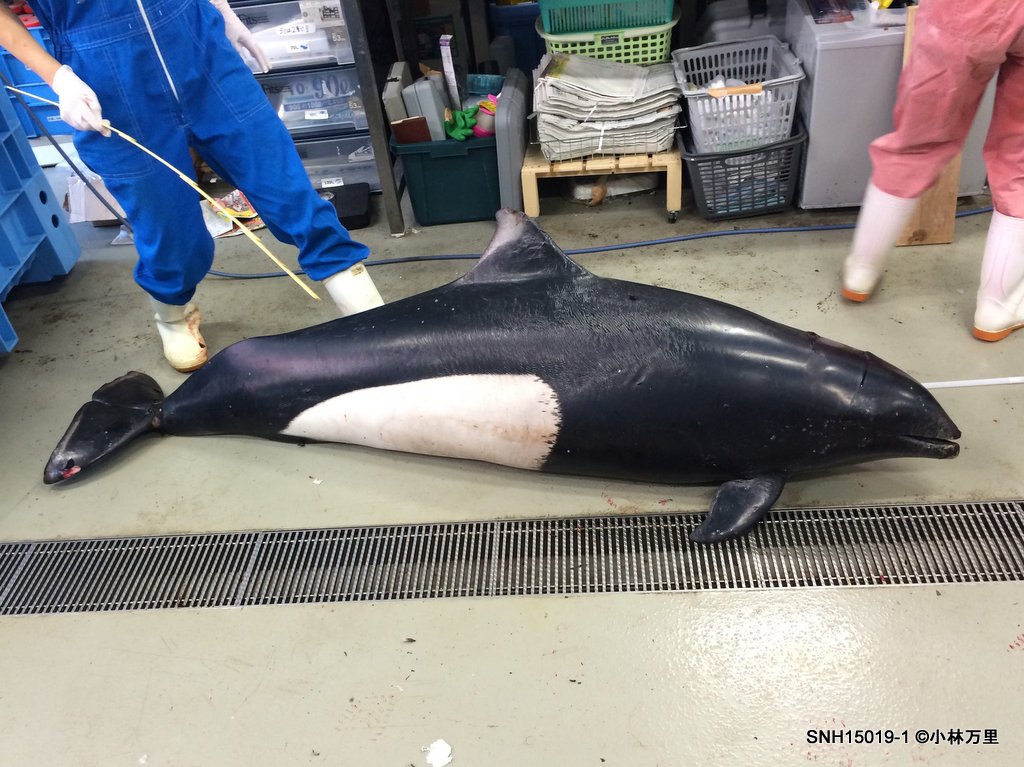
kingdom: Animalia
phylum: Chordata
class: Mammalia
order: Cetacea
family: Phocoenidae
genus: Phocoenoides
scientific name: Phocoenoides dalli
